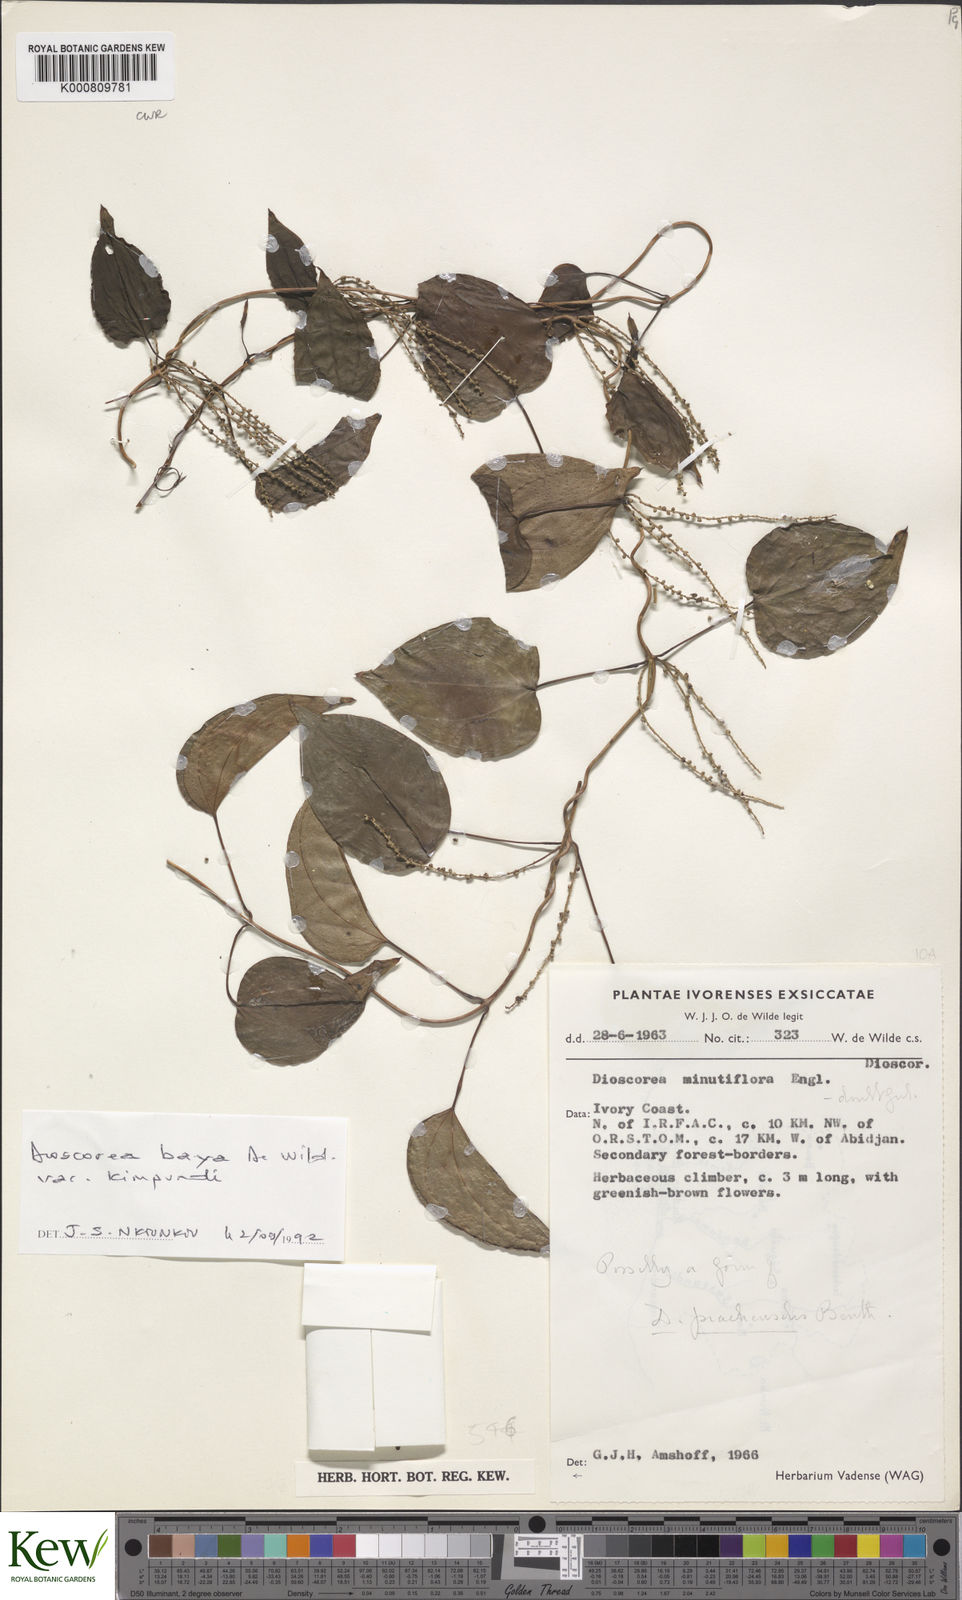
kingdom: Plantae
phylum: Tracheophyta
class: Liliopsida
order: Dioscoreales
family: Dioscoreaceae
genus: Dioscorea
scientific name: Dioscorea baya
